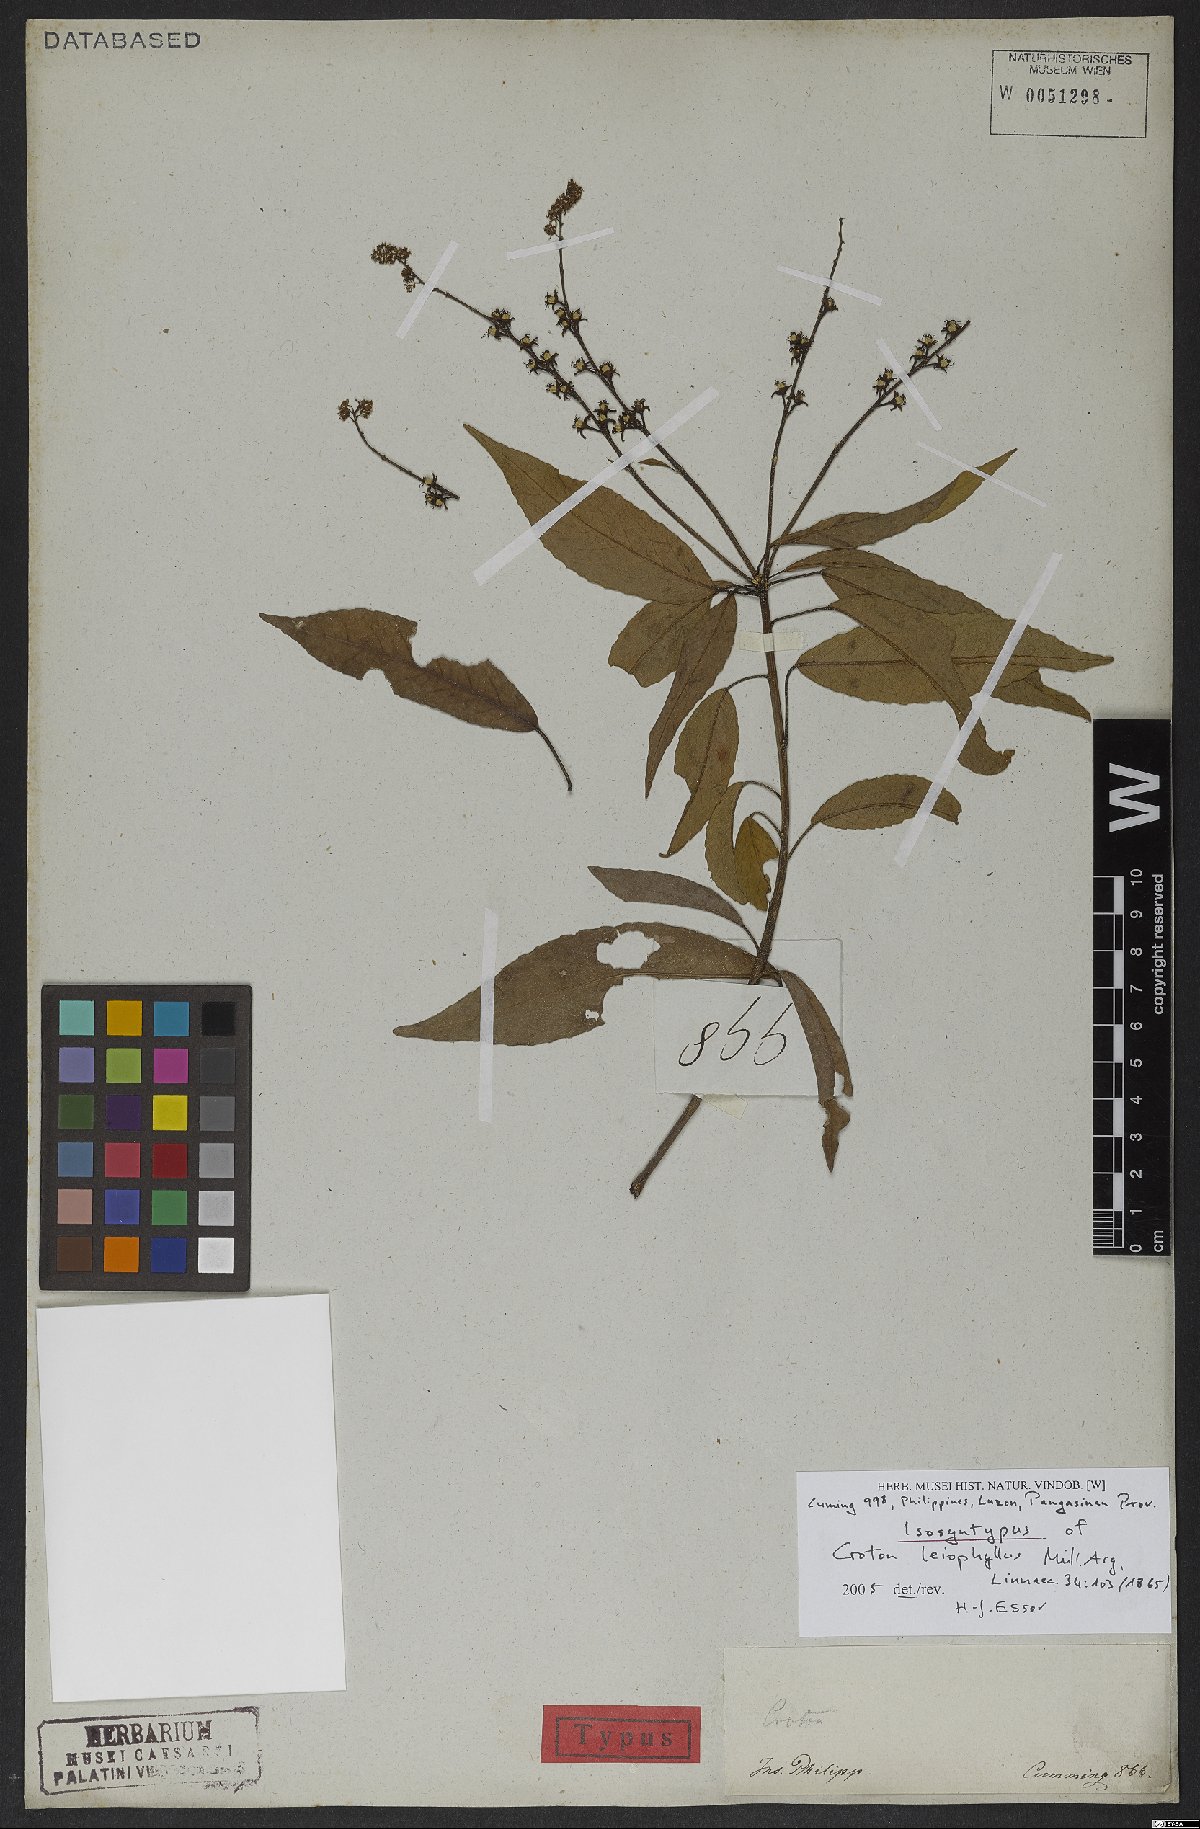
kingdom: Plantae
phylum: Tracheophyta
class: Magnoliopsida
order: Malpighiales
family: Euphorbiaceae
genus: Croton
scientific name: Croton leiophyllus
